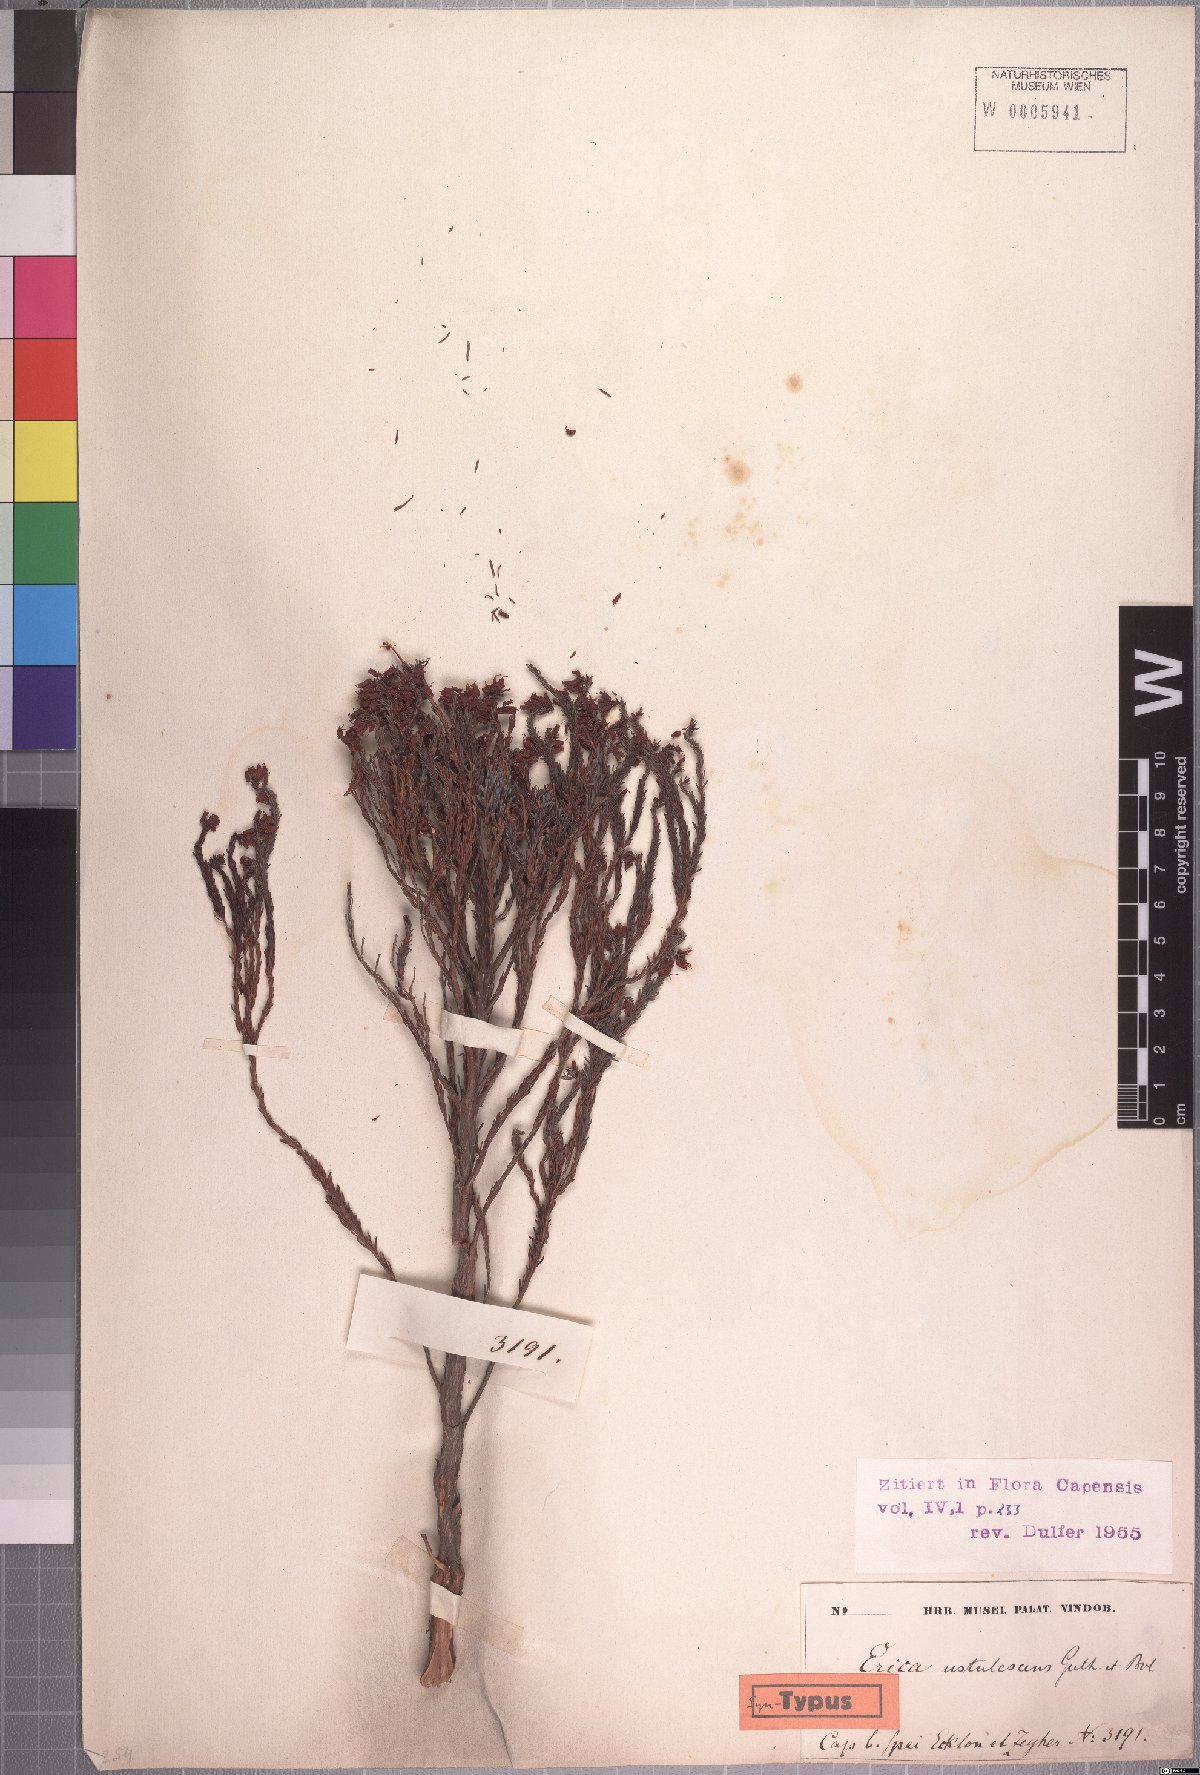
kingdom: Plantae
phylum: Tracheophyta
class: Magnoliopsida
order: Ericales
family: Ericaceae
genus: Erica
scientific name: Erica ustulescens
